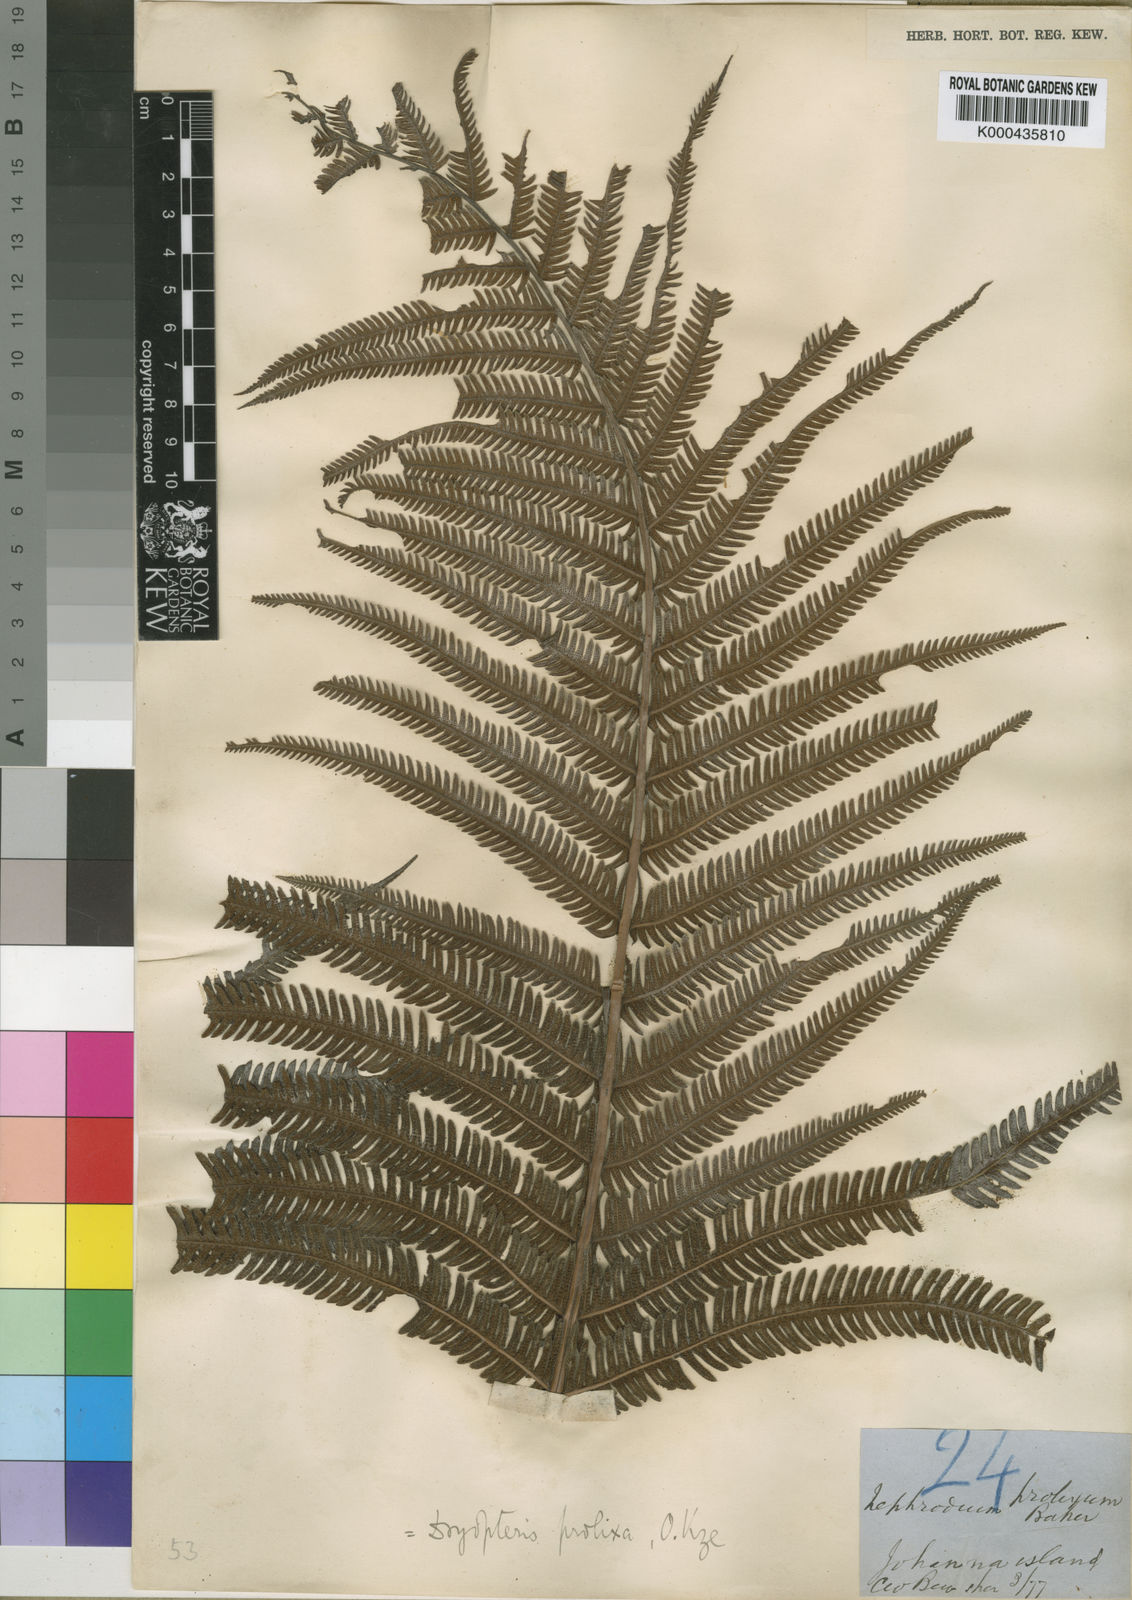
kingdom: Plantae
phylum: Tracheophyta
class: Polypodiopsida
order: Polypodiales
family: Thelypteridaceae
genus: Pseudocyclosorus
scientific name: Pseudocyclosorus johannae
